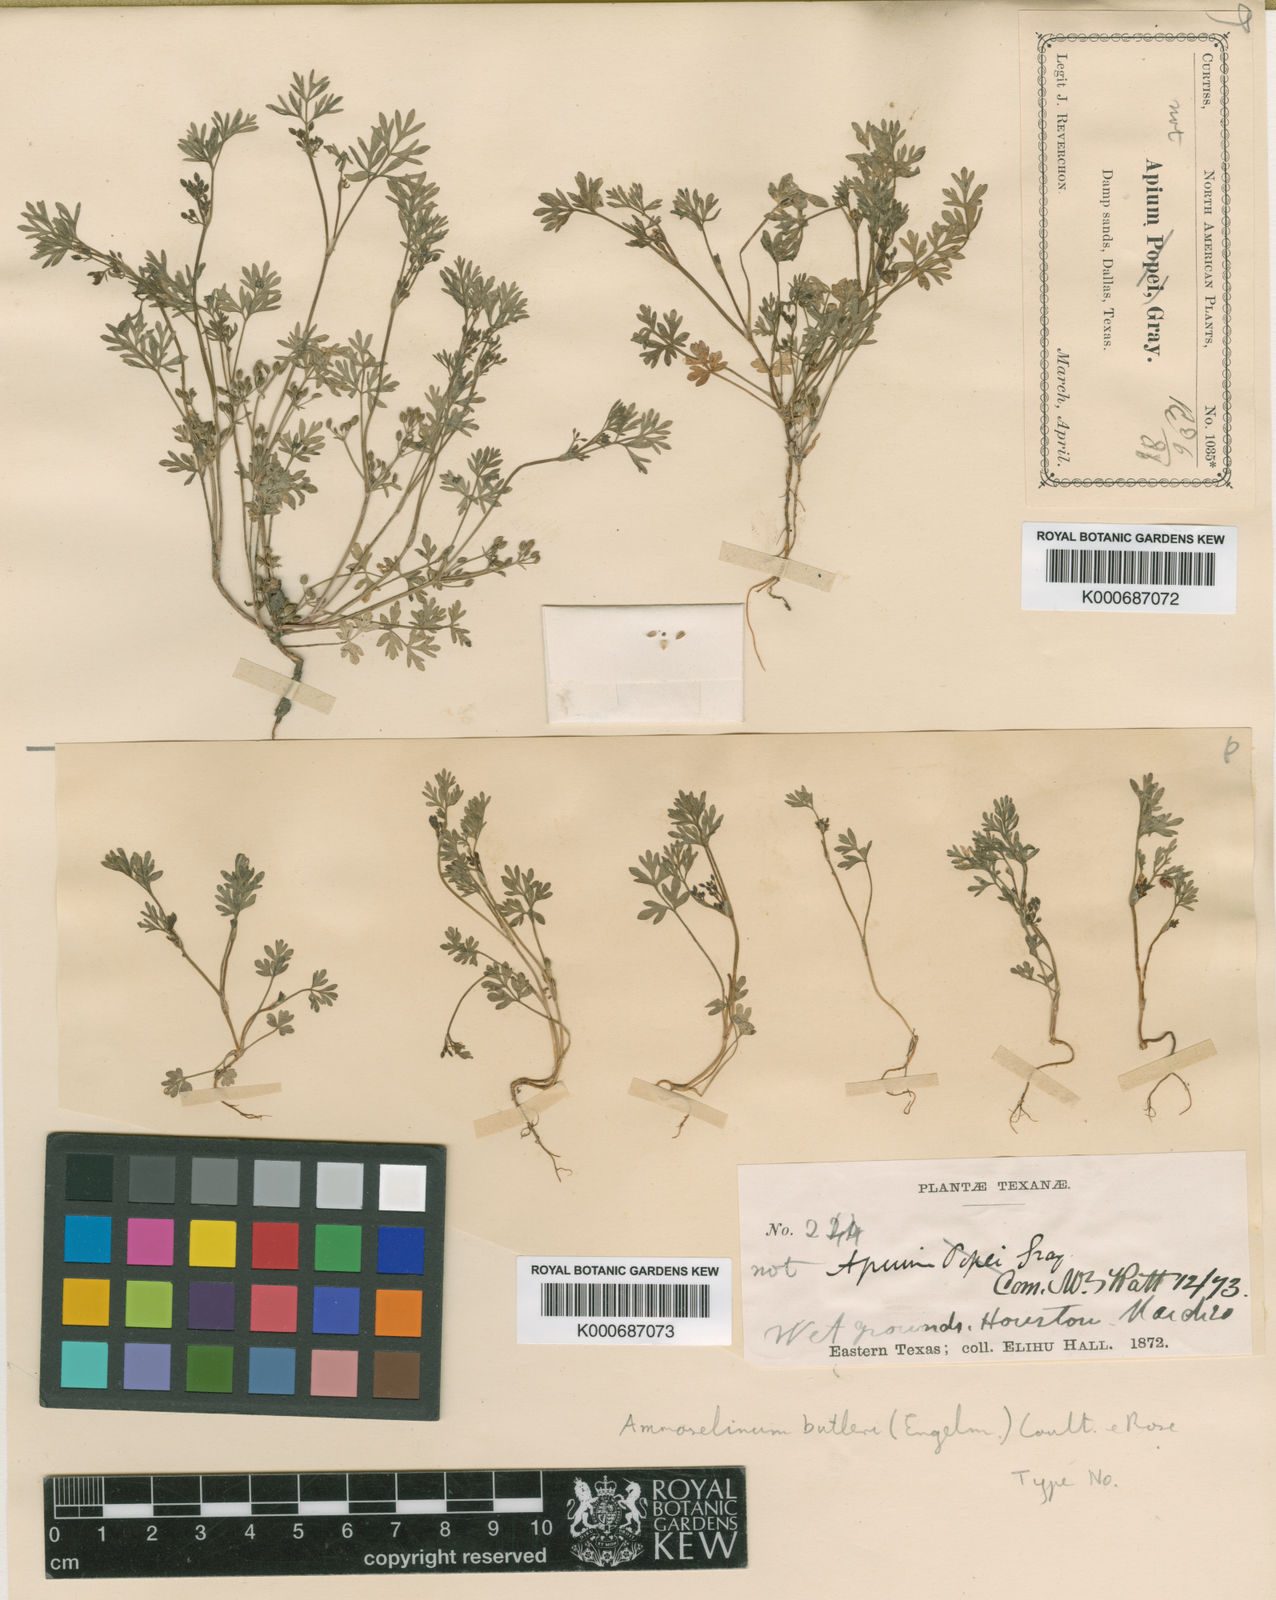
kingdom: Plantae
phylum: Tracheophyta
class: Magnoliopsida
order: Apiales
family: Apiaceae
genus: Ammoselinum
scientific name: Ammoselinum butleri
